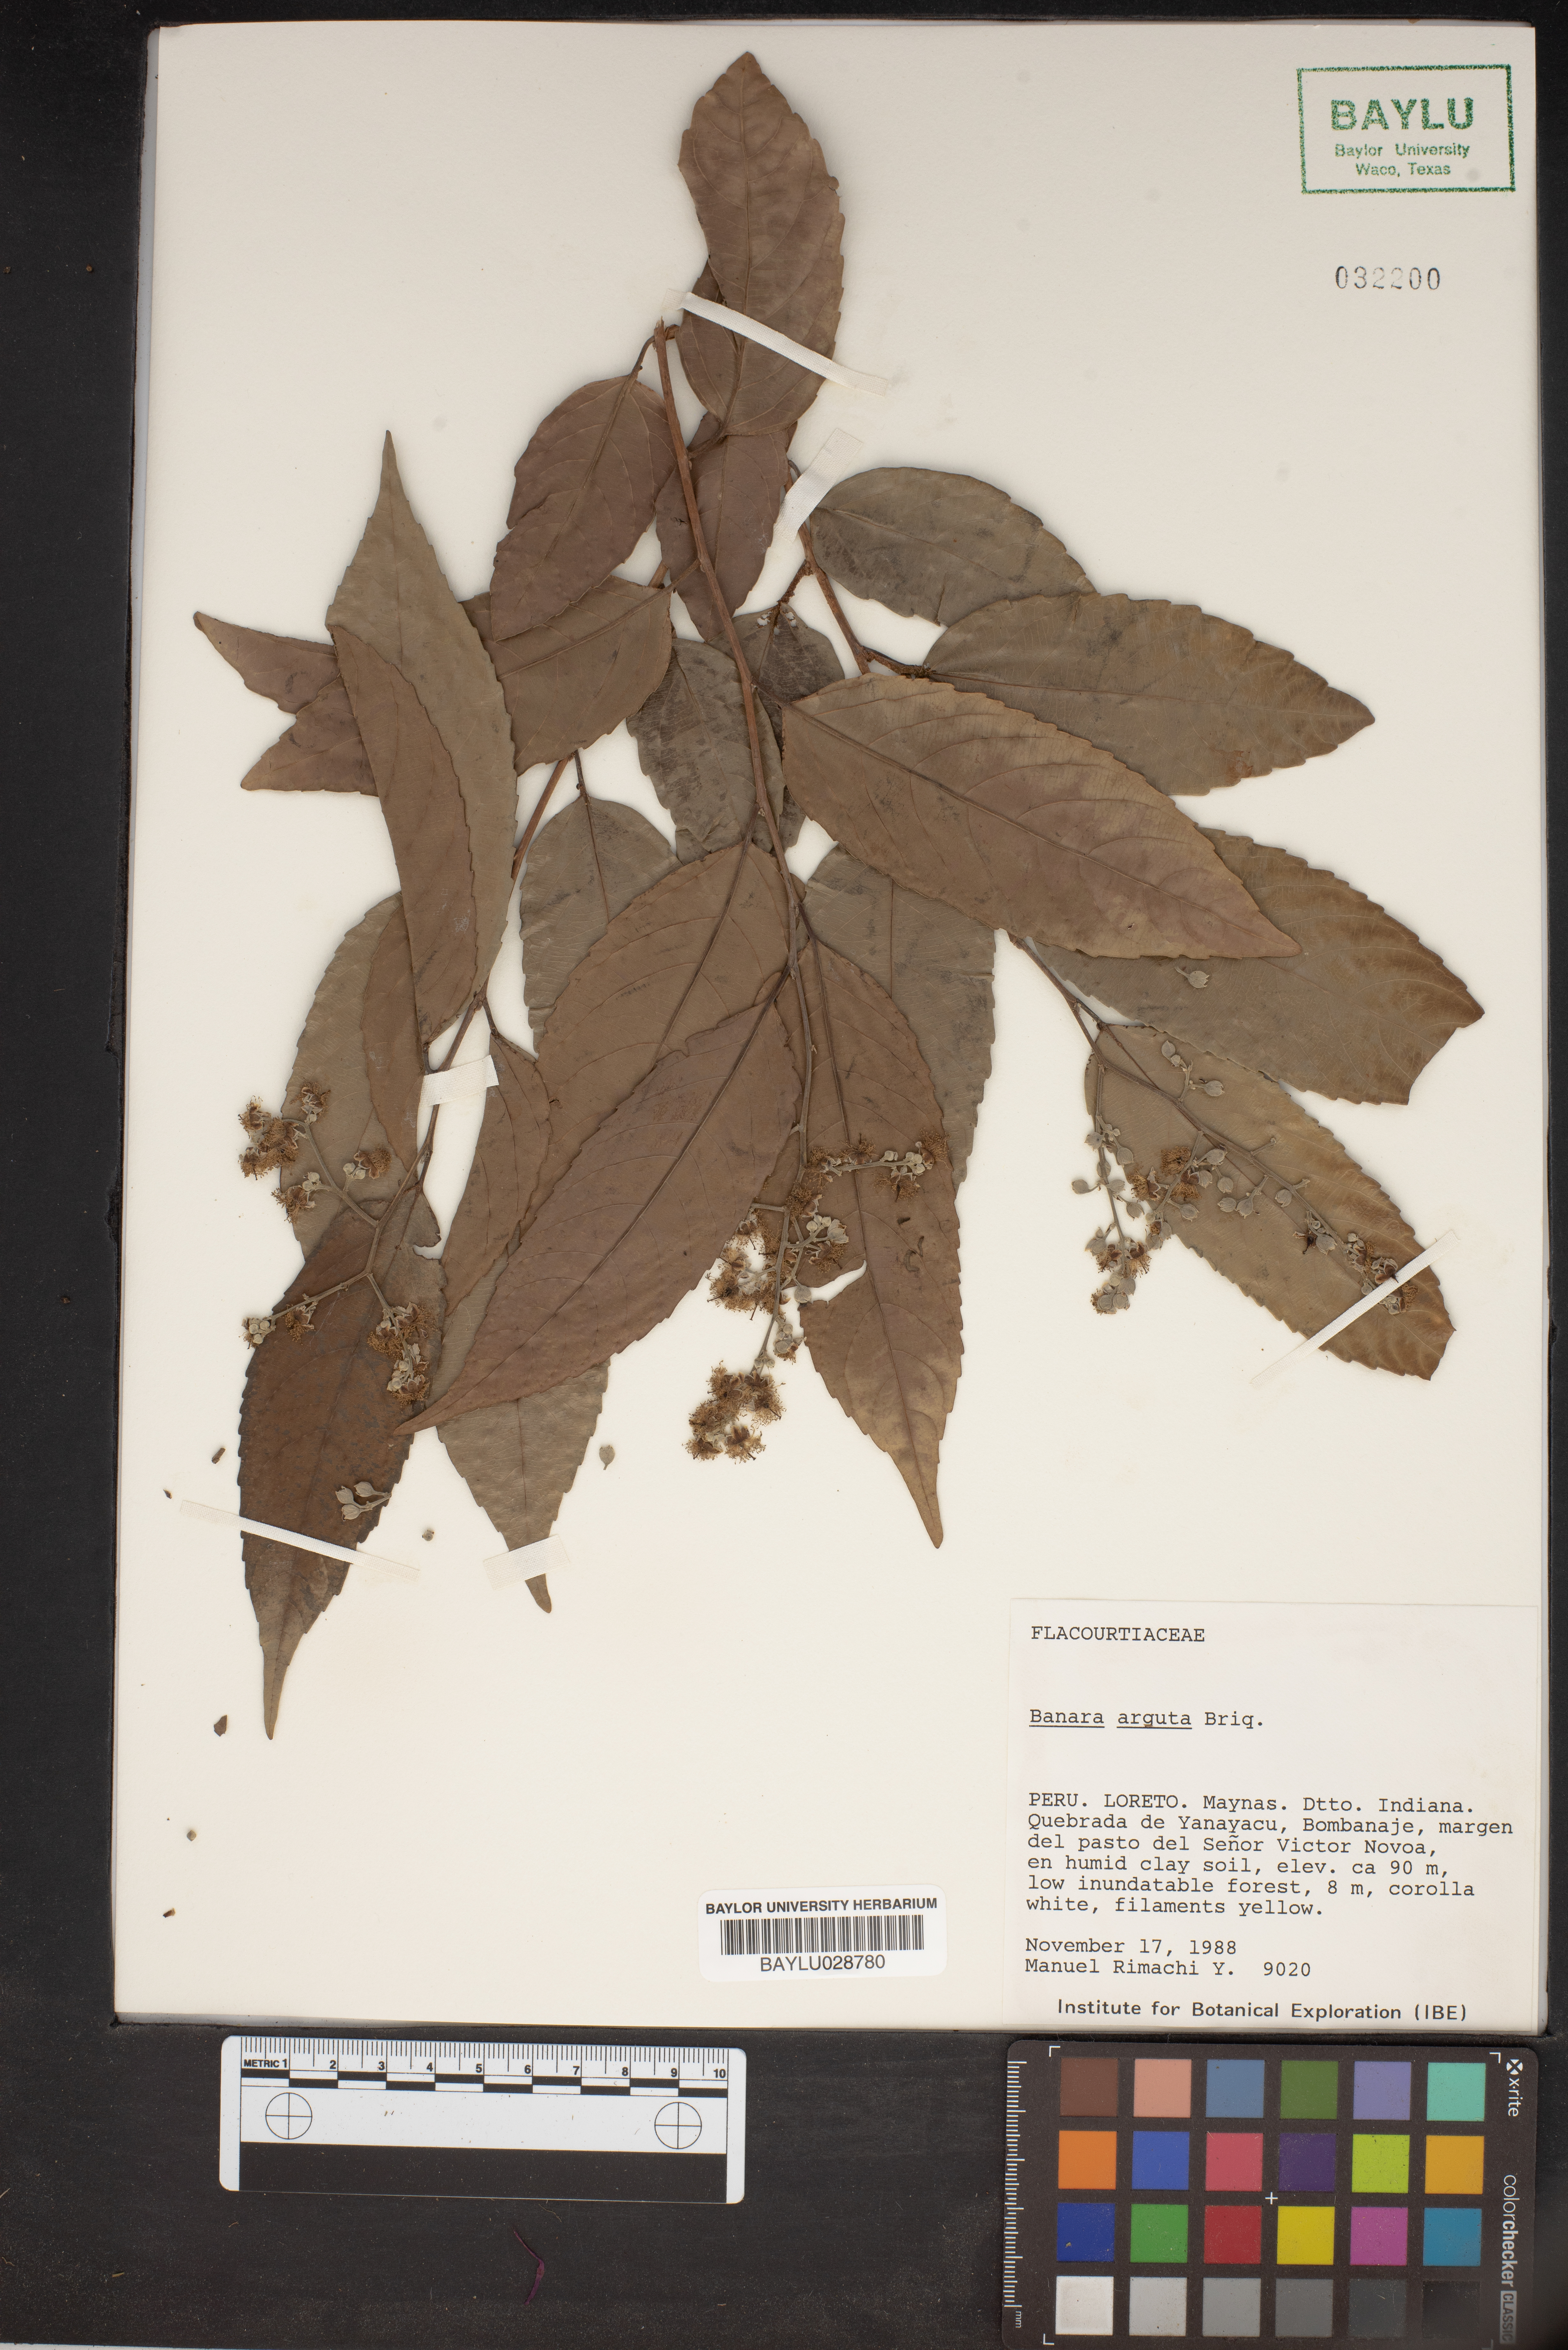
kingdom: Plantae
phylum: Tracheophyta
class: Magnoliopsida
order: Malpighiales
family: Salicaceae
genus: Banara
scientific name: Banara arguta
